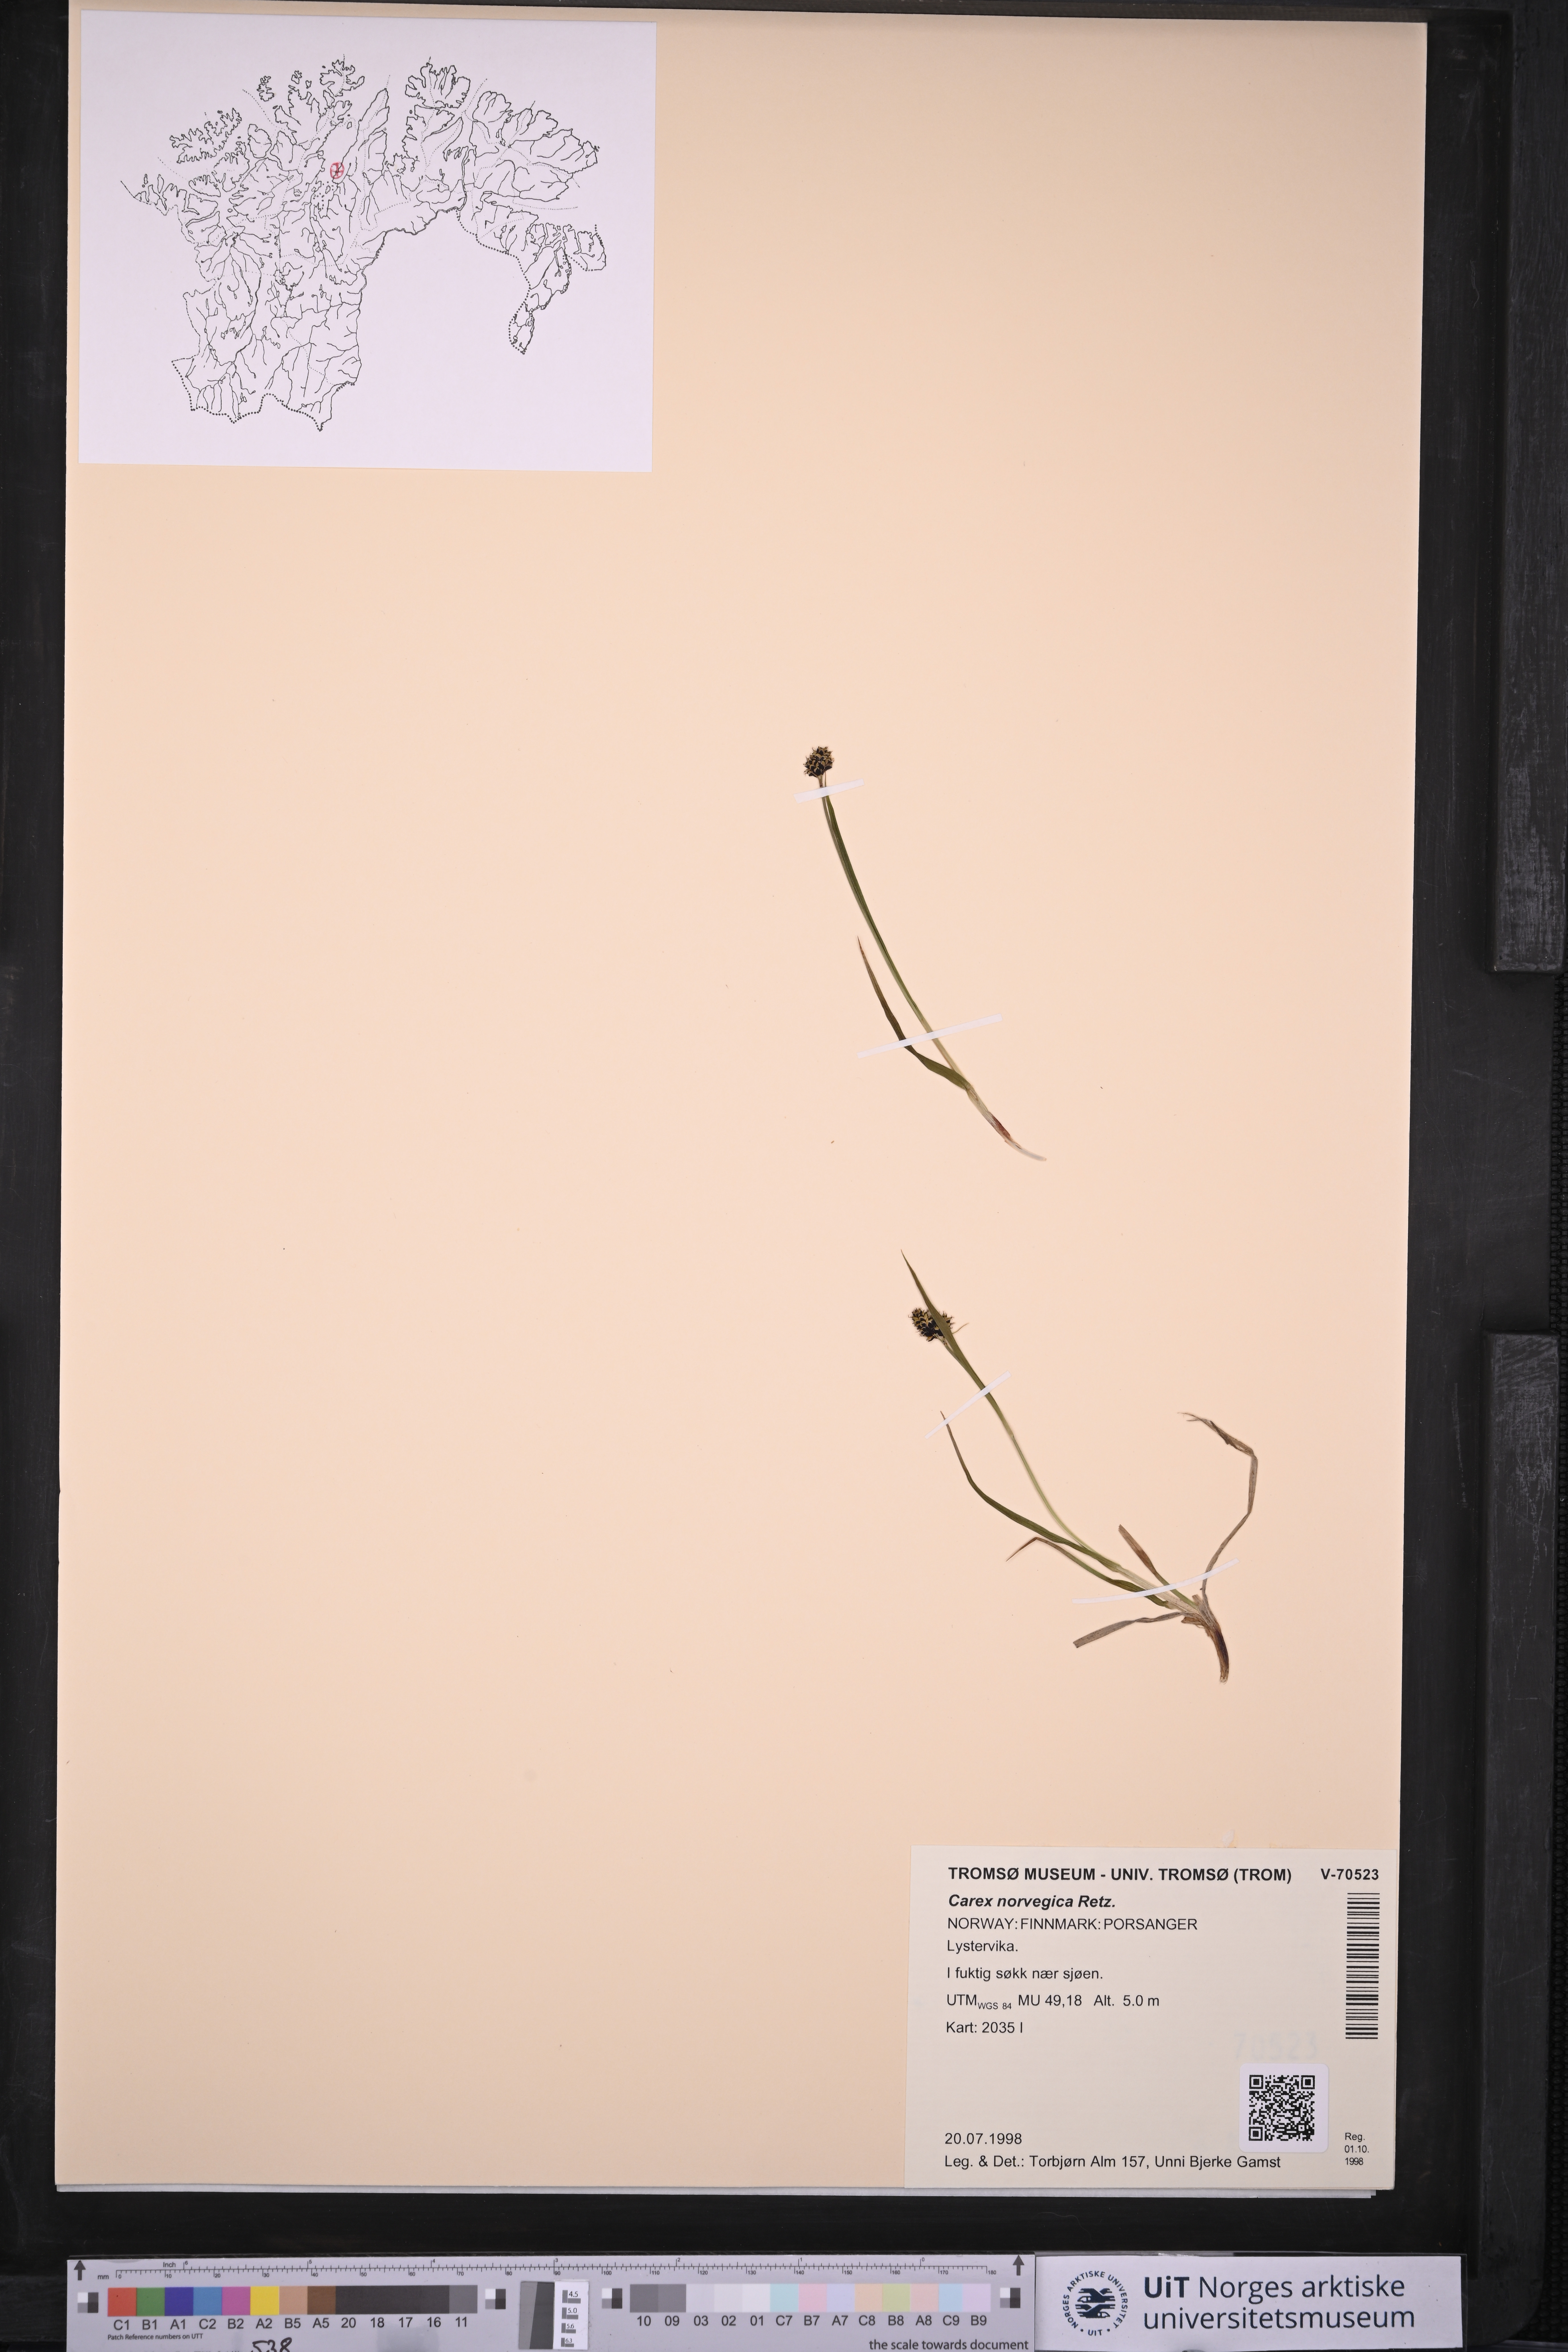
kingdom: Plantae
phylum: Tracheophyta
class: Liliopsida
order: Poales
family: Cyperaceae
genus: Carex
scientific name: Carex norvegica
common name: Close-headed alpine-sedge
